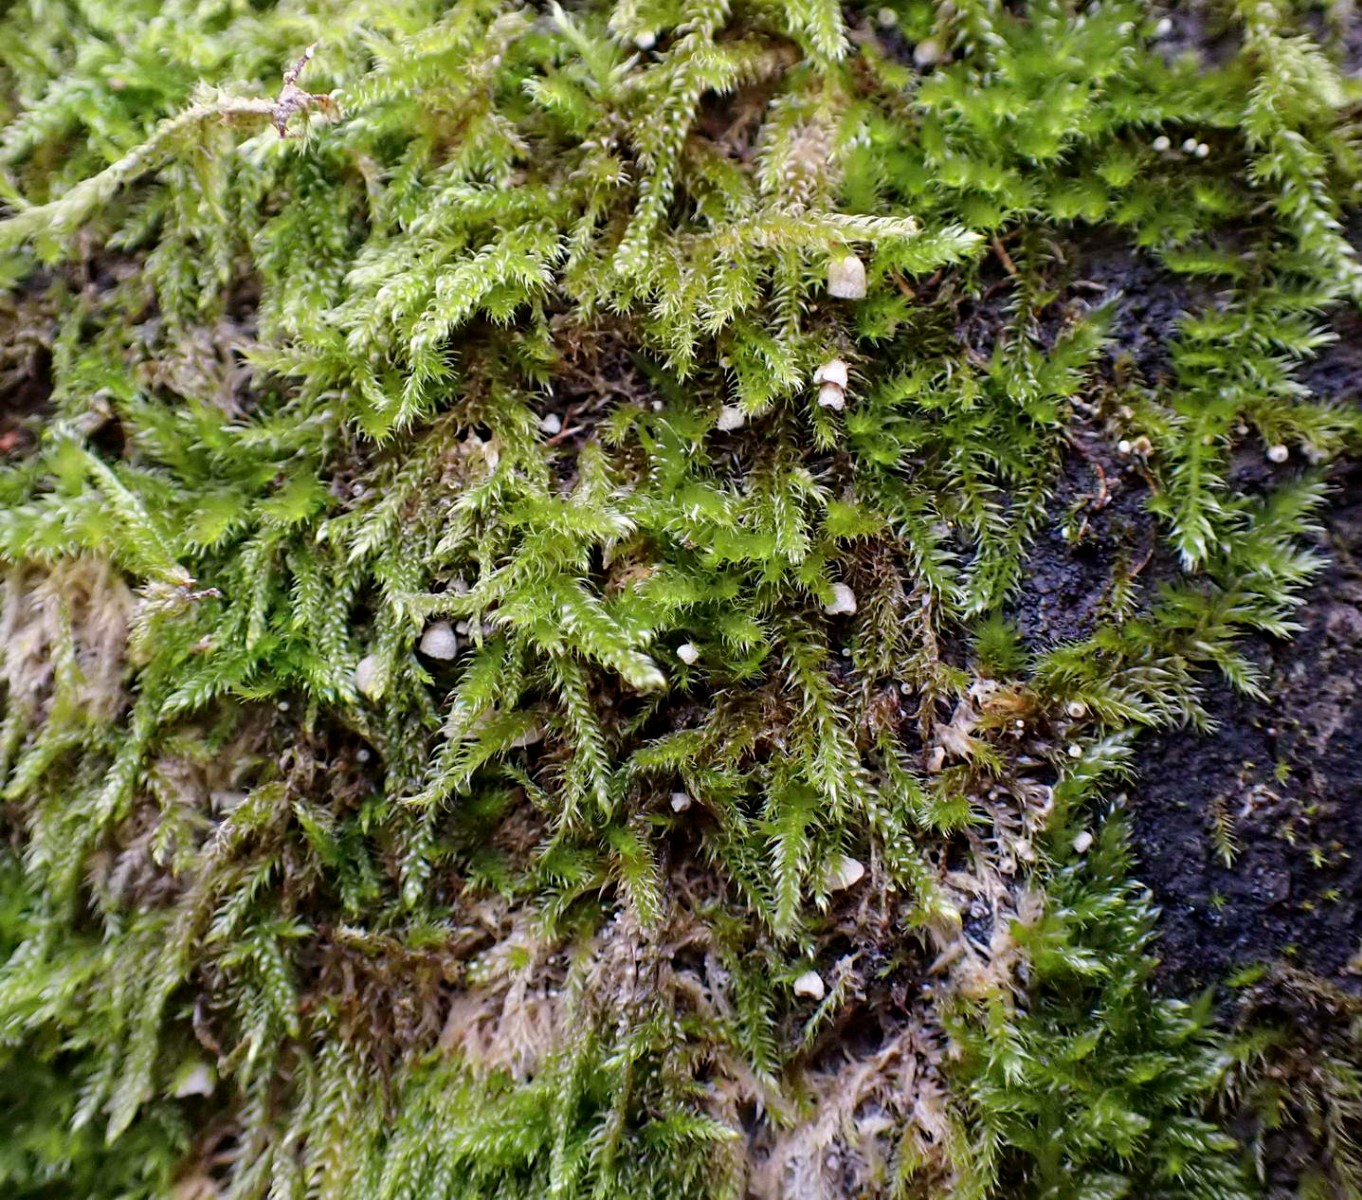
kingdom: Fungi
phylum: Basidiomycota
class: Agaricomycetes
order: Agaricales
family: Chromocyphellaceae
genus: Chromocyphella
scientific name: Chromocyphella muscicola
